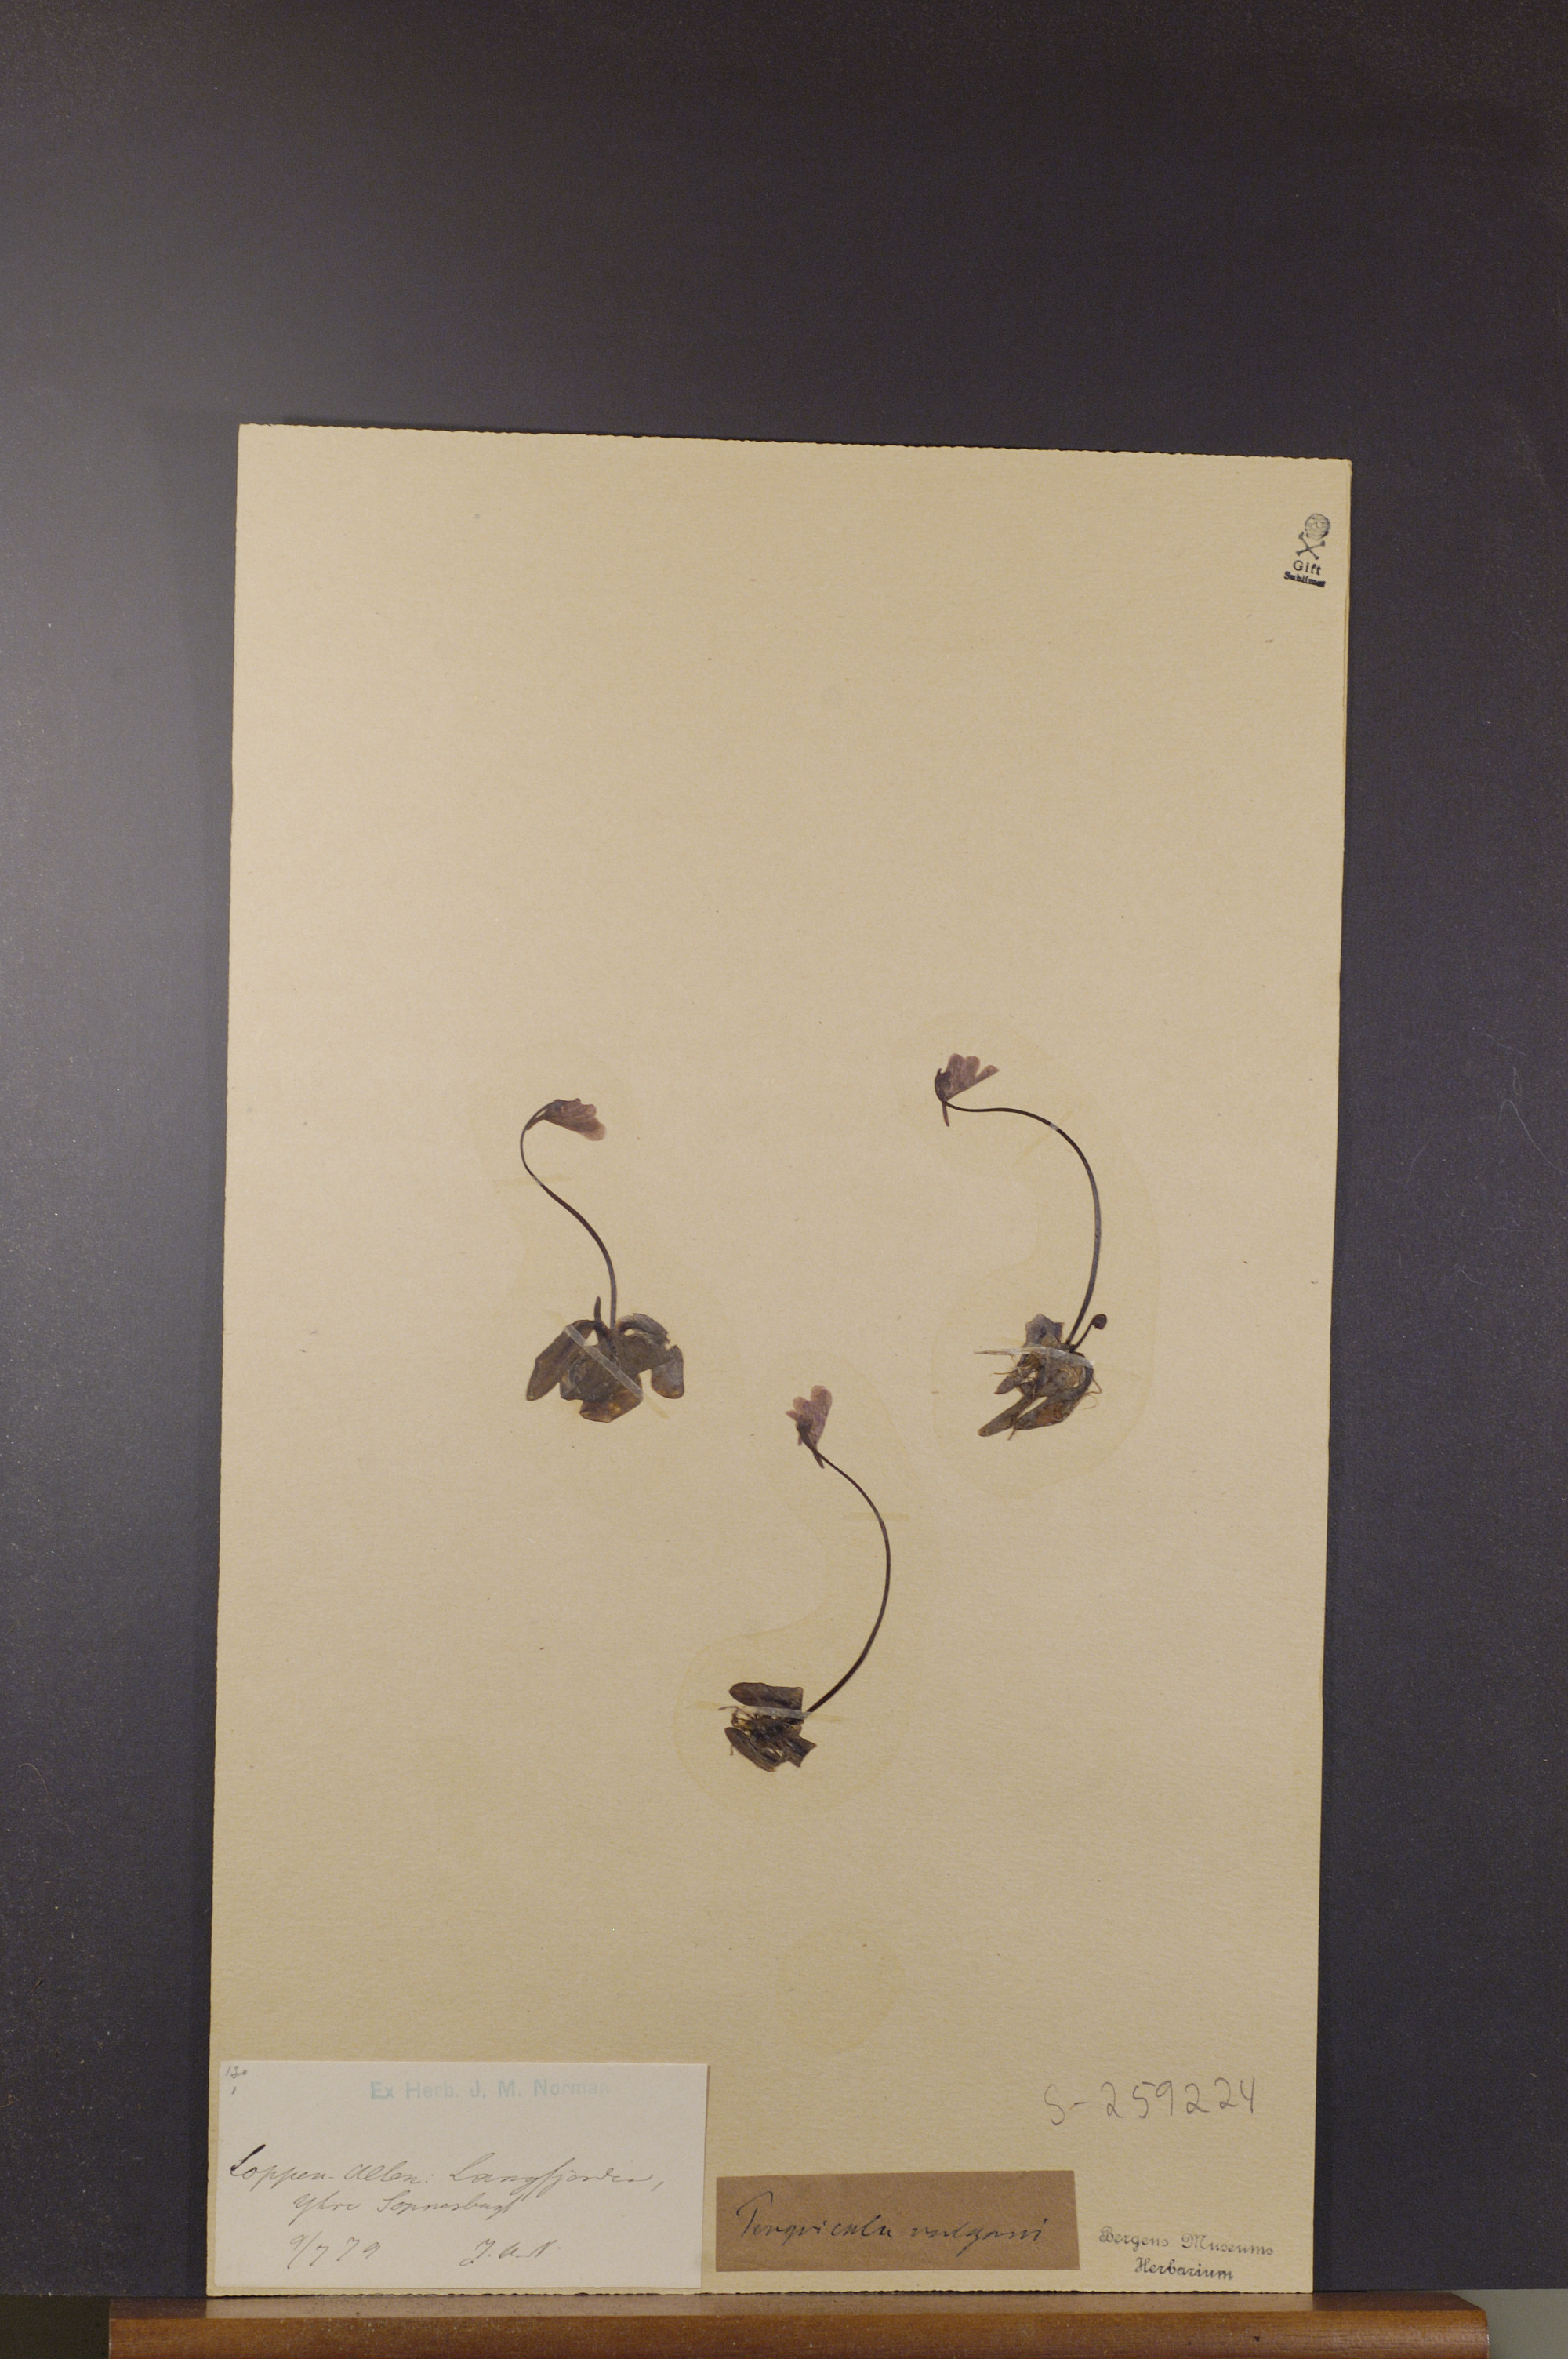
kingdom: Plantae
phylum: Tracheophyta
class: Magnoliopsida
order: Lamiales
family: Lentibulariaceae
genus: Pinguicula
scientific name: Pinguicula vulgaris
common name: Common butterwort
